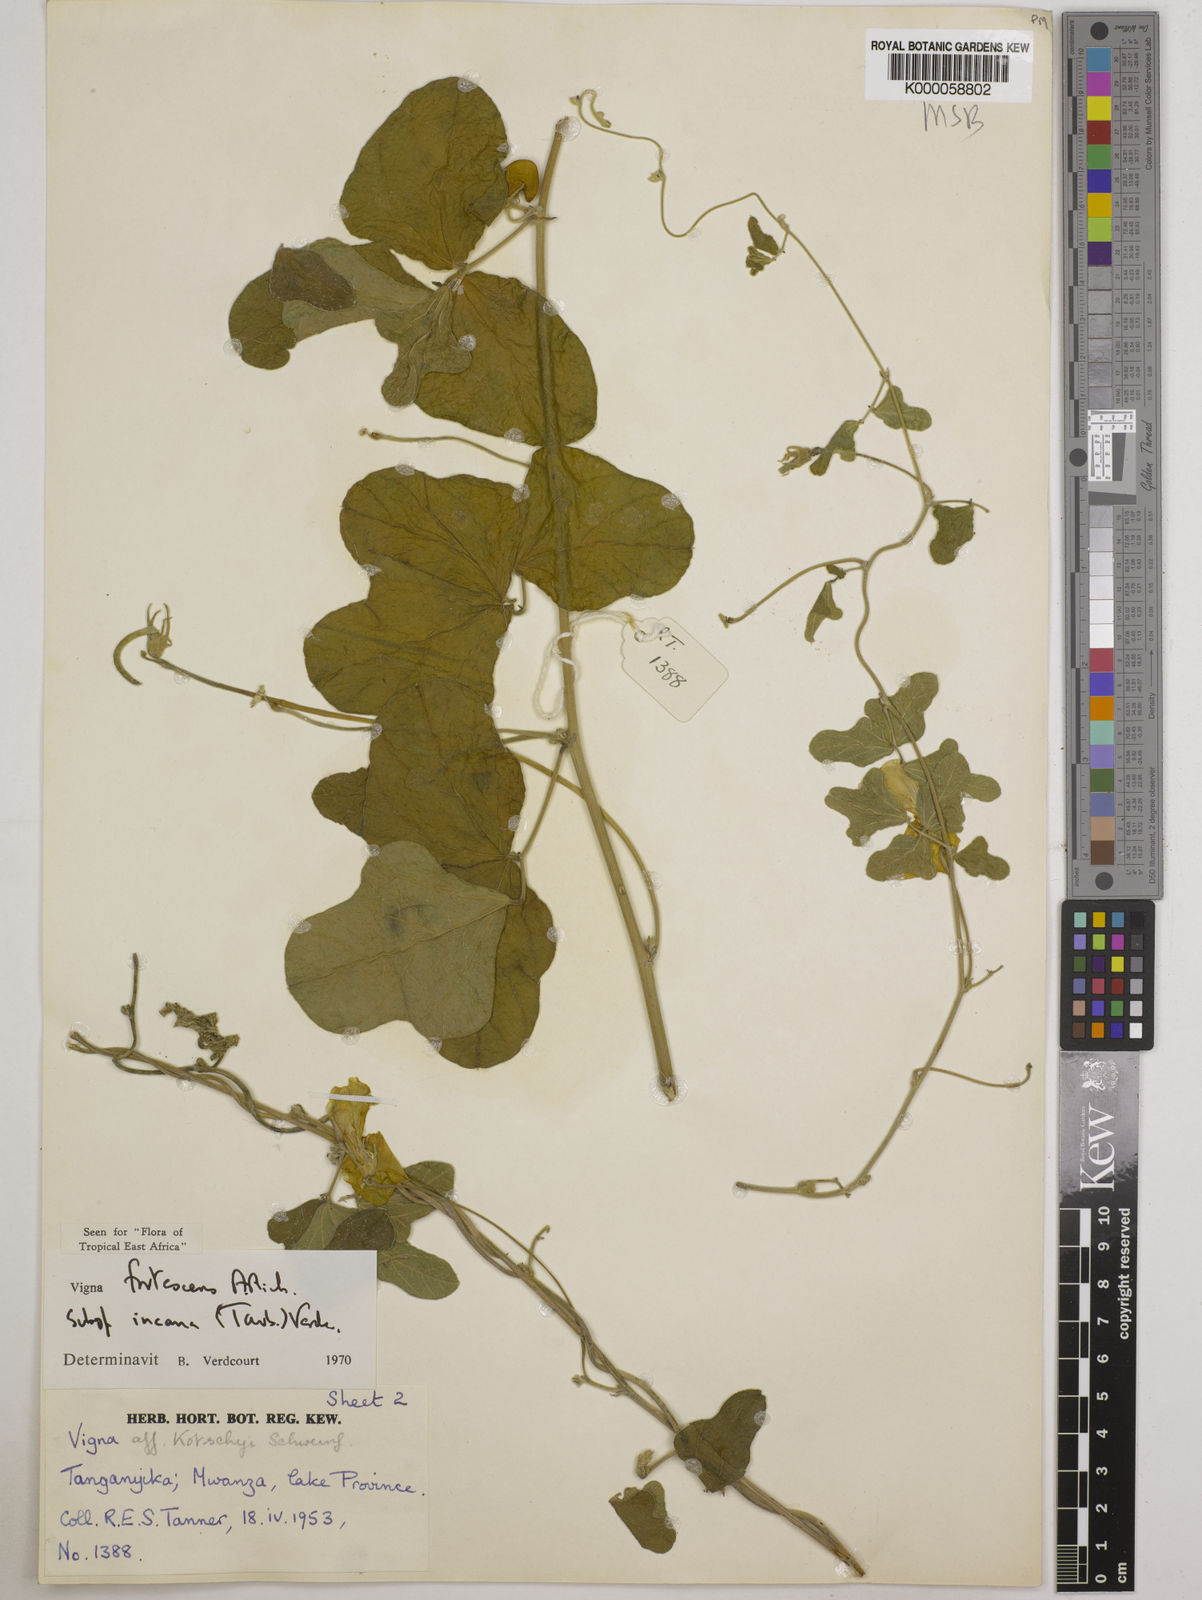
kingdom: Plantae
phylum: Tracheophyta
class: Magnoliopsida
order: Fabales
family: Fabaceae
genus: Vigna
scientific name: Vigna
